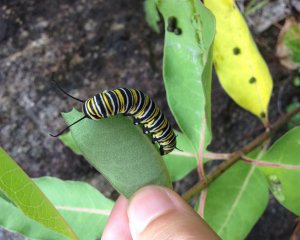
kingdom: Animalia
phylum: Arthropoda
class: Insecta
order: Lepidoptera
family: Nymphalidae
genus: Danaus
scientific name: Danaus plexippus
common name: Monarch
